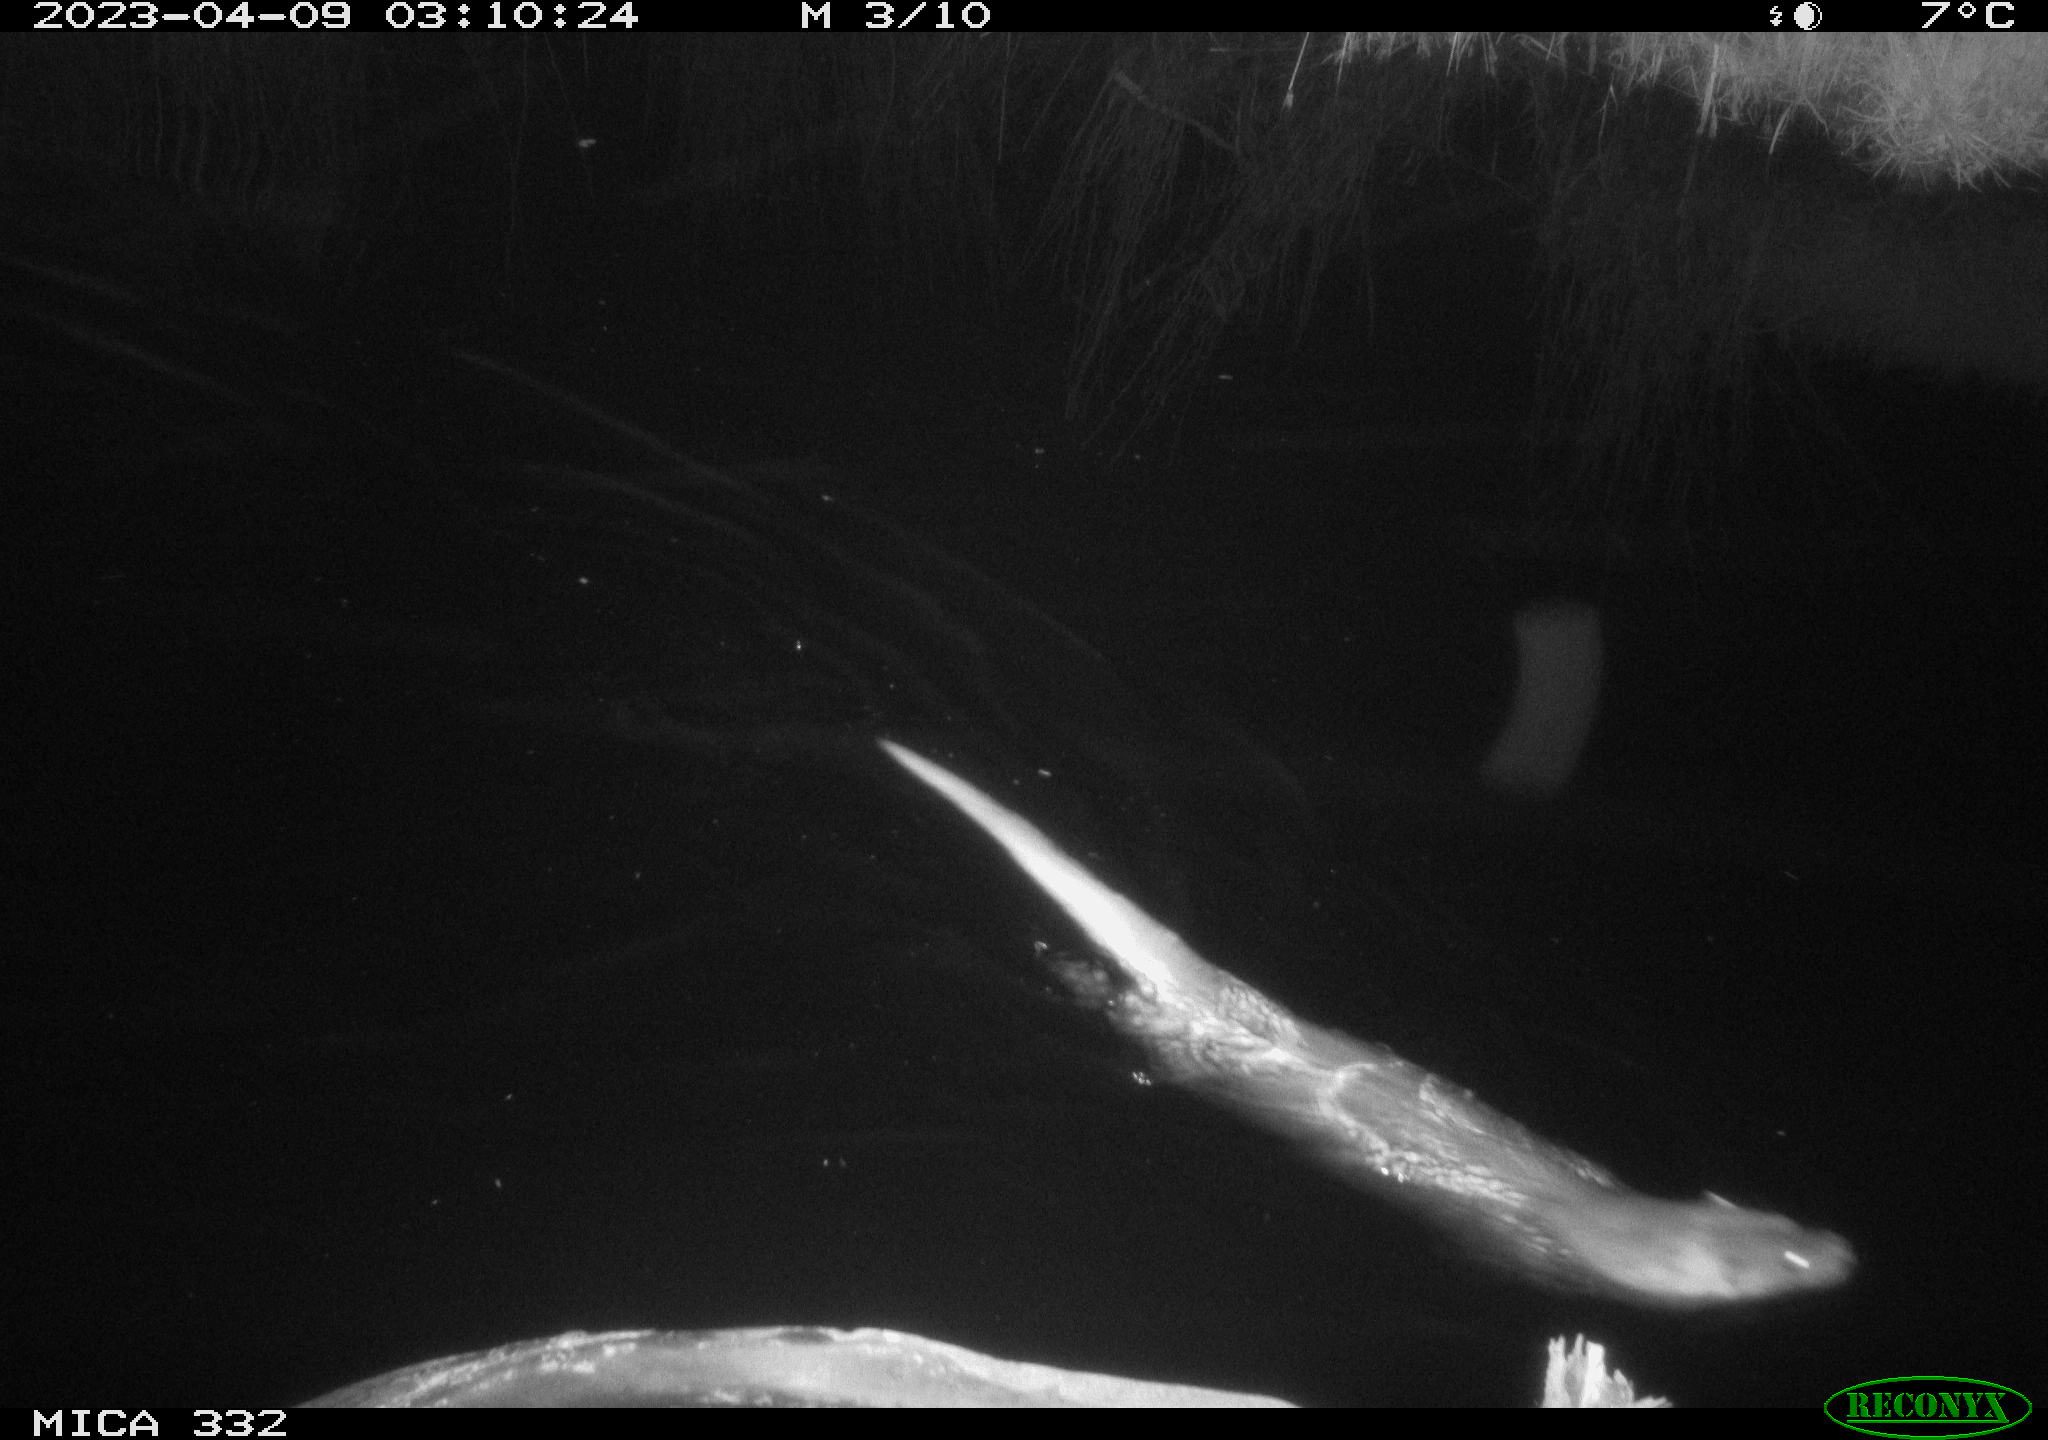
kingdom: Animalia
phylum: Chordata
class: Mammalia
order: Carnivora
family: Mustelidae
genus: Lutra
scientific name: Lutra lutra
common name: European otter
